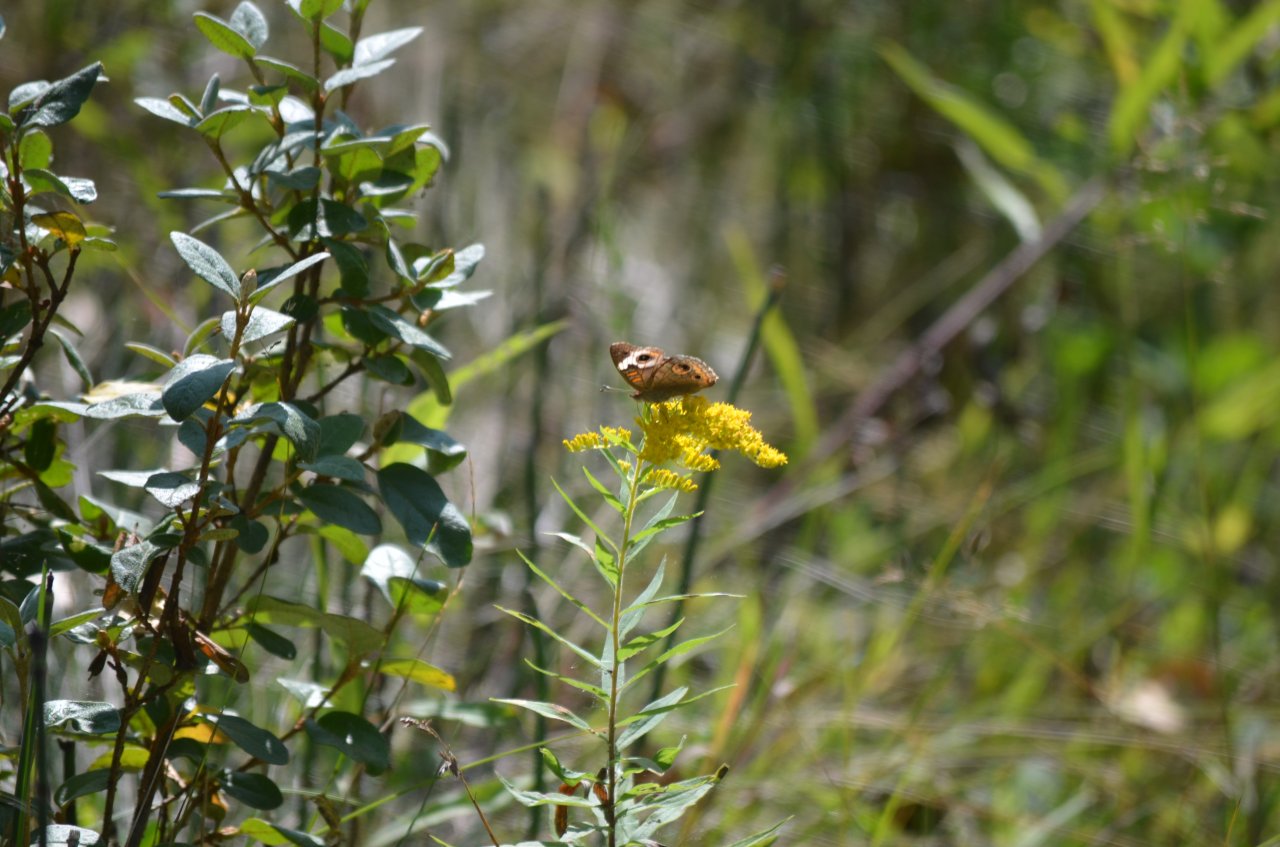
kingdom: Animalia
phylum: Arthropoda
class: Insecta
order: Lepidoptera
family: Nymphalidae
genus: Junonia
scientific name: Junonia coenia
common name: Common Buckeye
